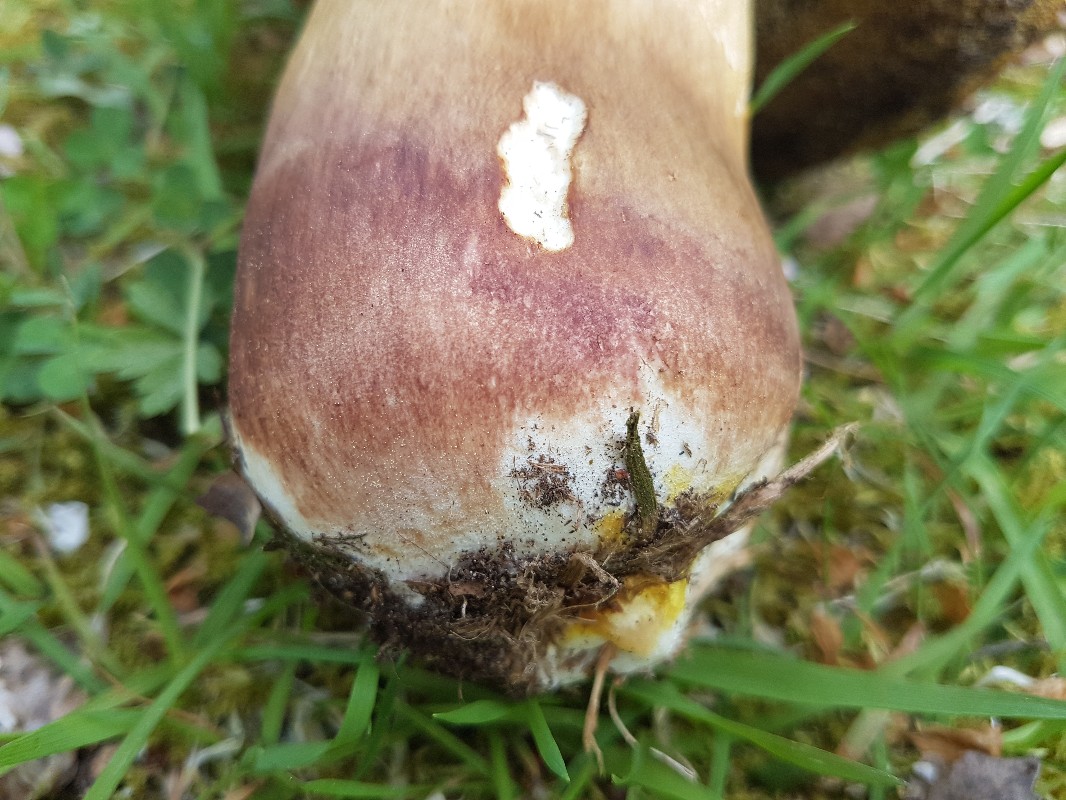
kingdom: Fungi
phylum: Basidiomycota
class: Agaricomycetes
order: Boletales
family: Boletaceae
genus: Boletus
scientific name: Boletus pinophilus
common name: rødbrun rørhat
